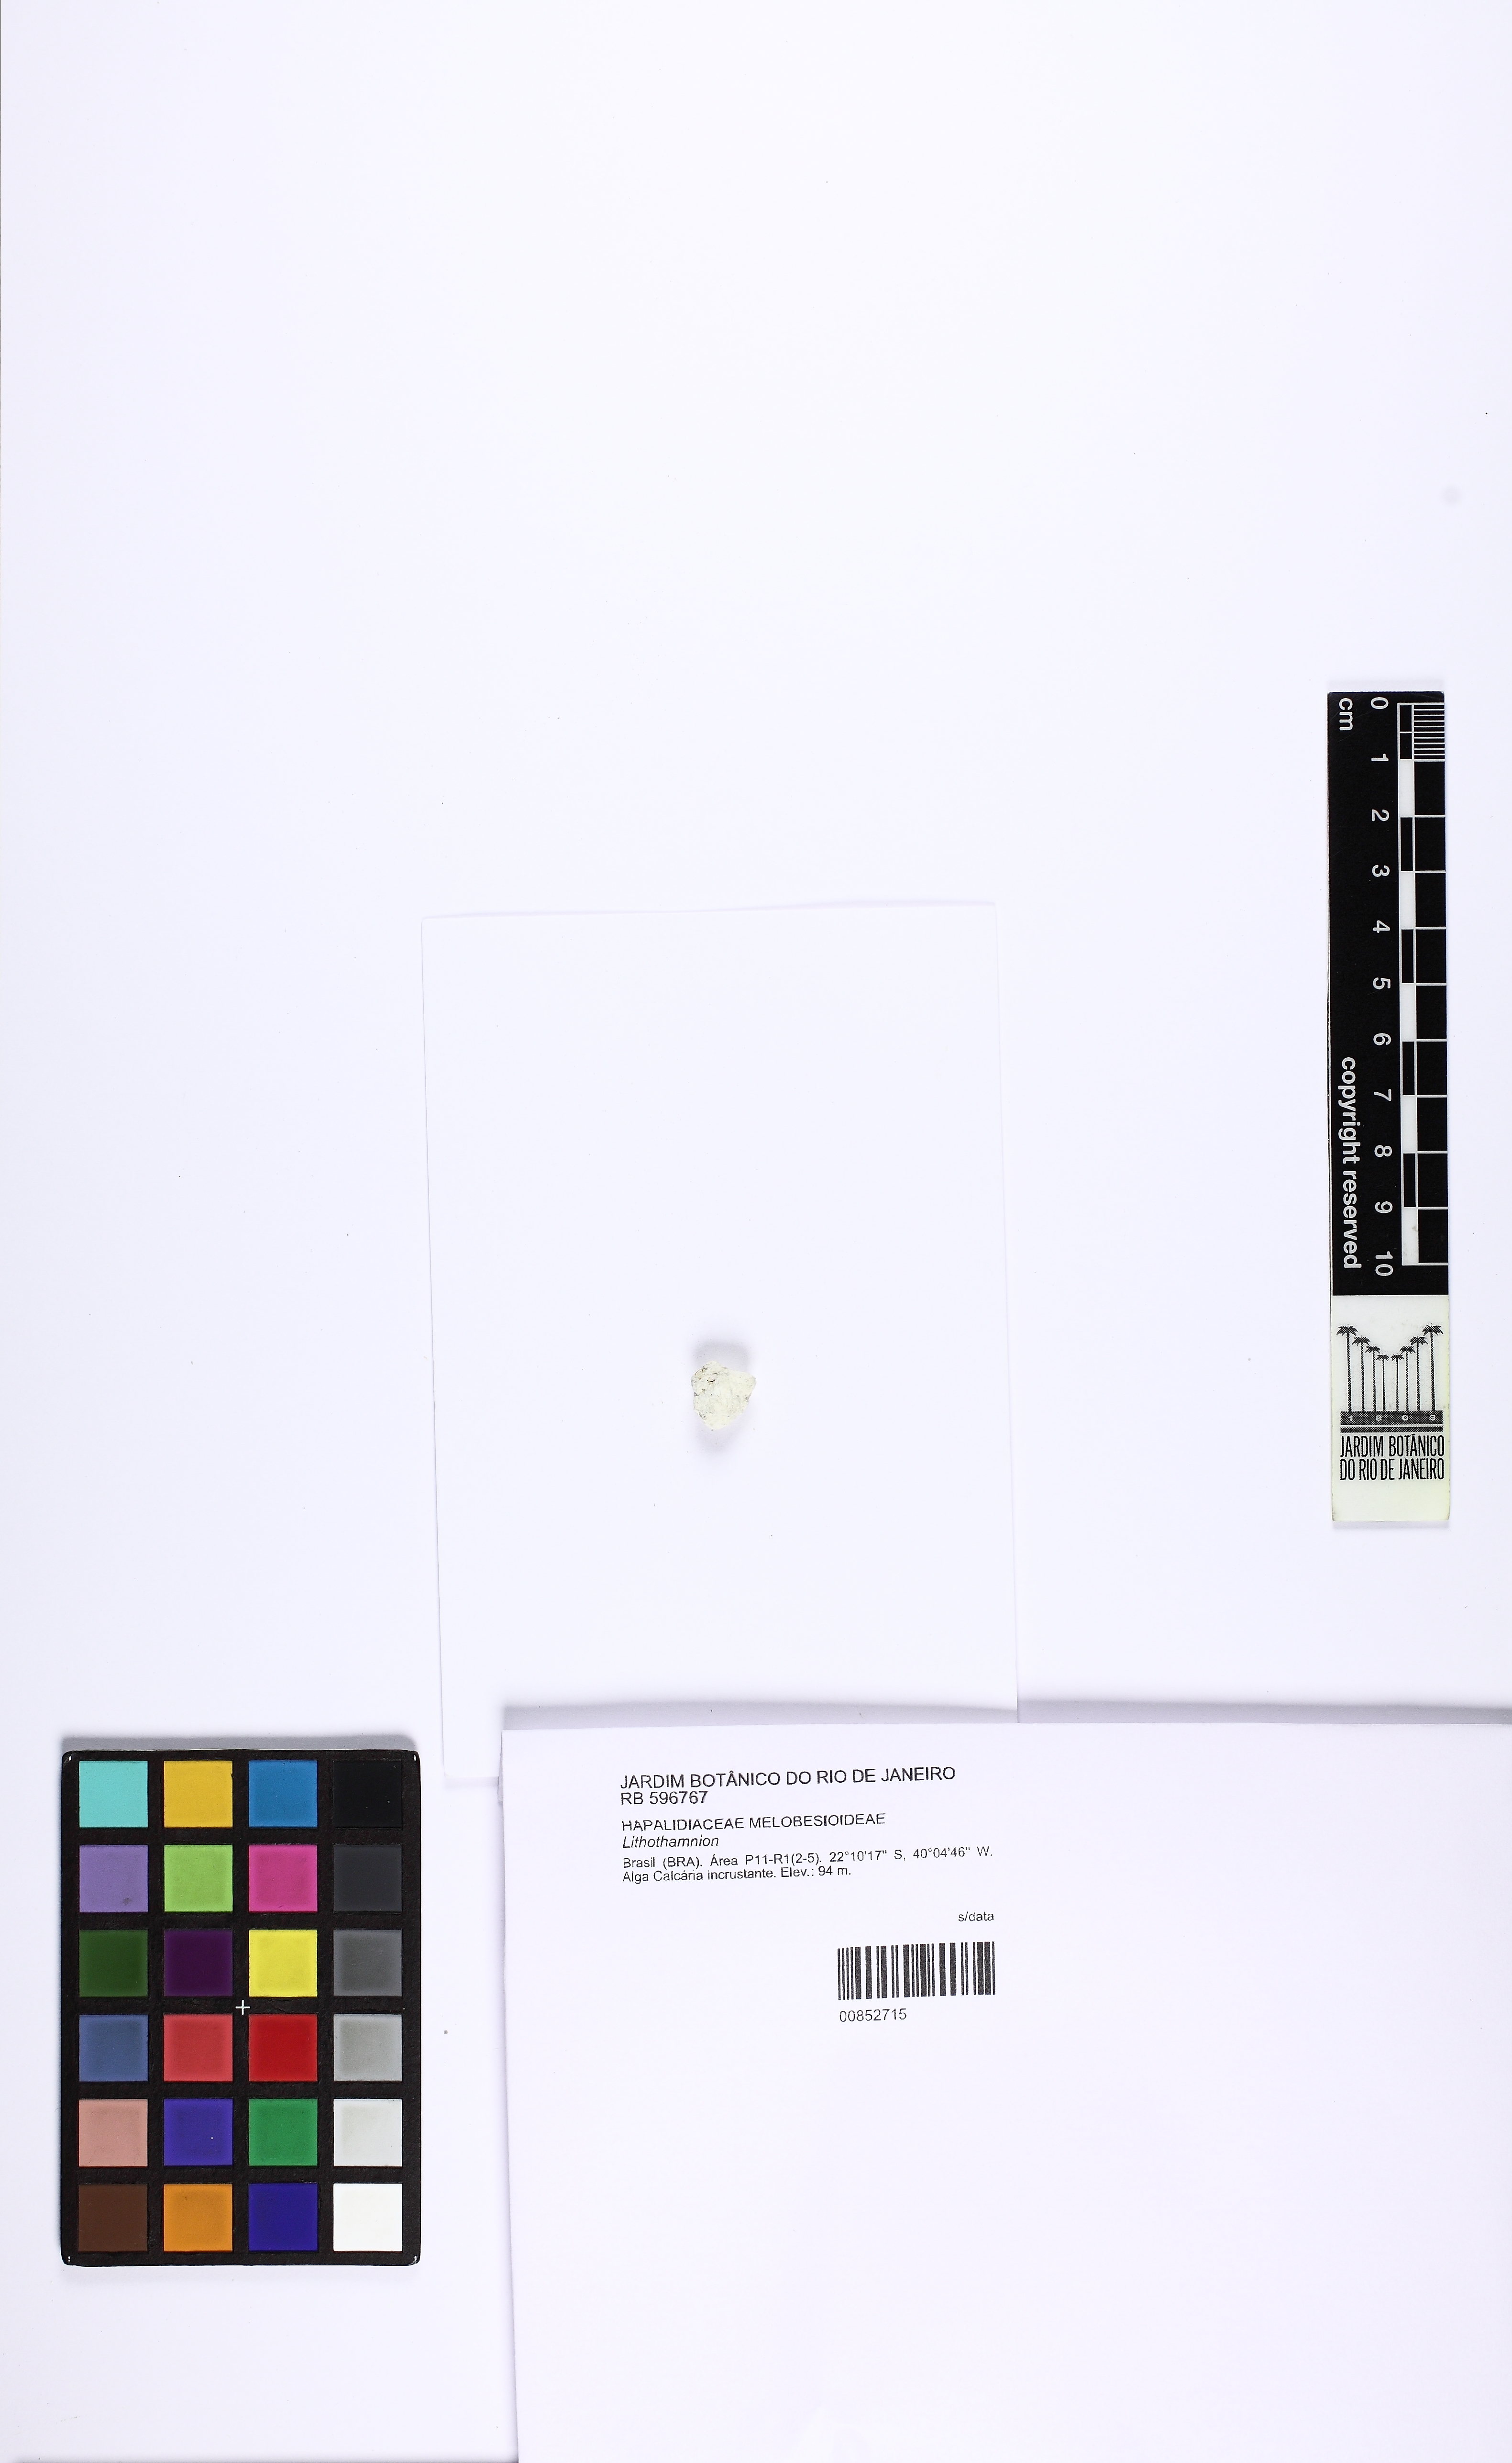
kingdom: Plantae
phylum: Rhodophyta
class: Florideophyceae
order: Corallinales
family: Hapalidiaceae
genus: Lithothamnion
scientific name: Lithothamnion
